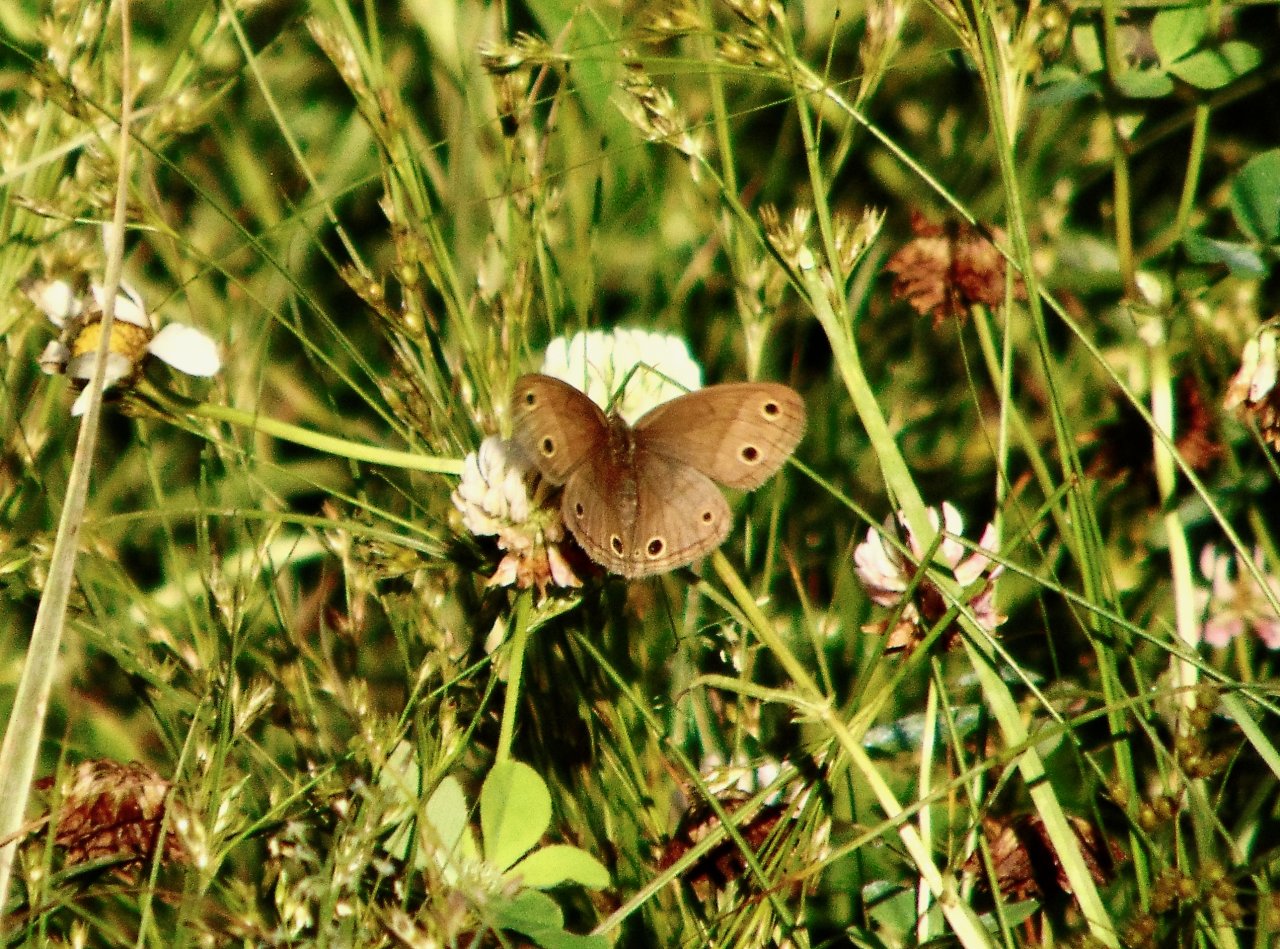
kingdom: Animalia
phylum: Arthropoda
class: Insecta
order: Lepidoptera
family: Nymphalidae
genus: Euptychia
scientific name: Euptychia cymela
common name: Little Wood Satyr
